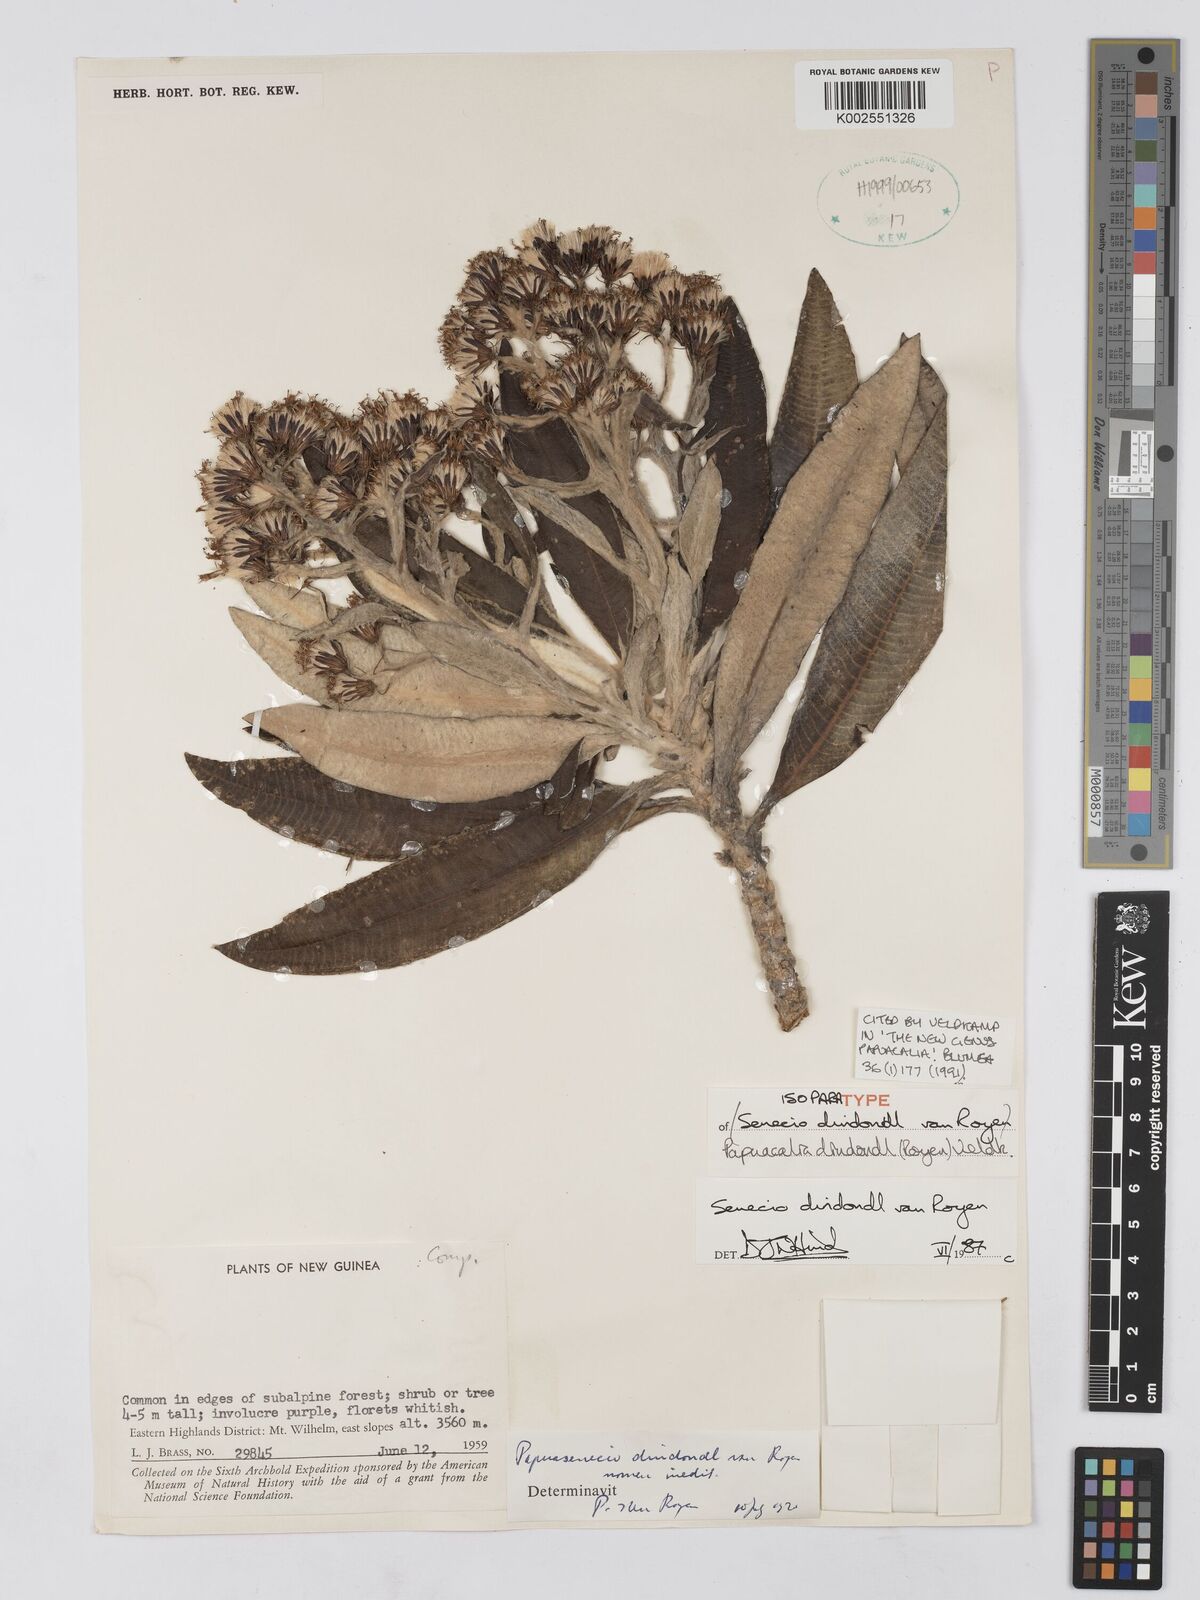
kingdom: Plantae
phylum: Tracheophyta
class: Magnoliopsida
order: Asterales
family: Asteraceae
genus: Papuacalia
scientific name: Papuacalia dindondl
